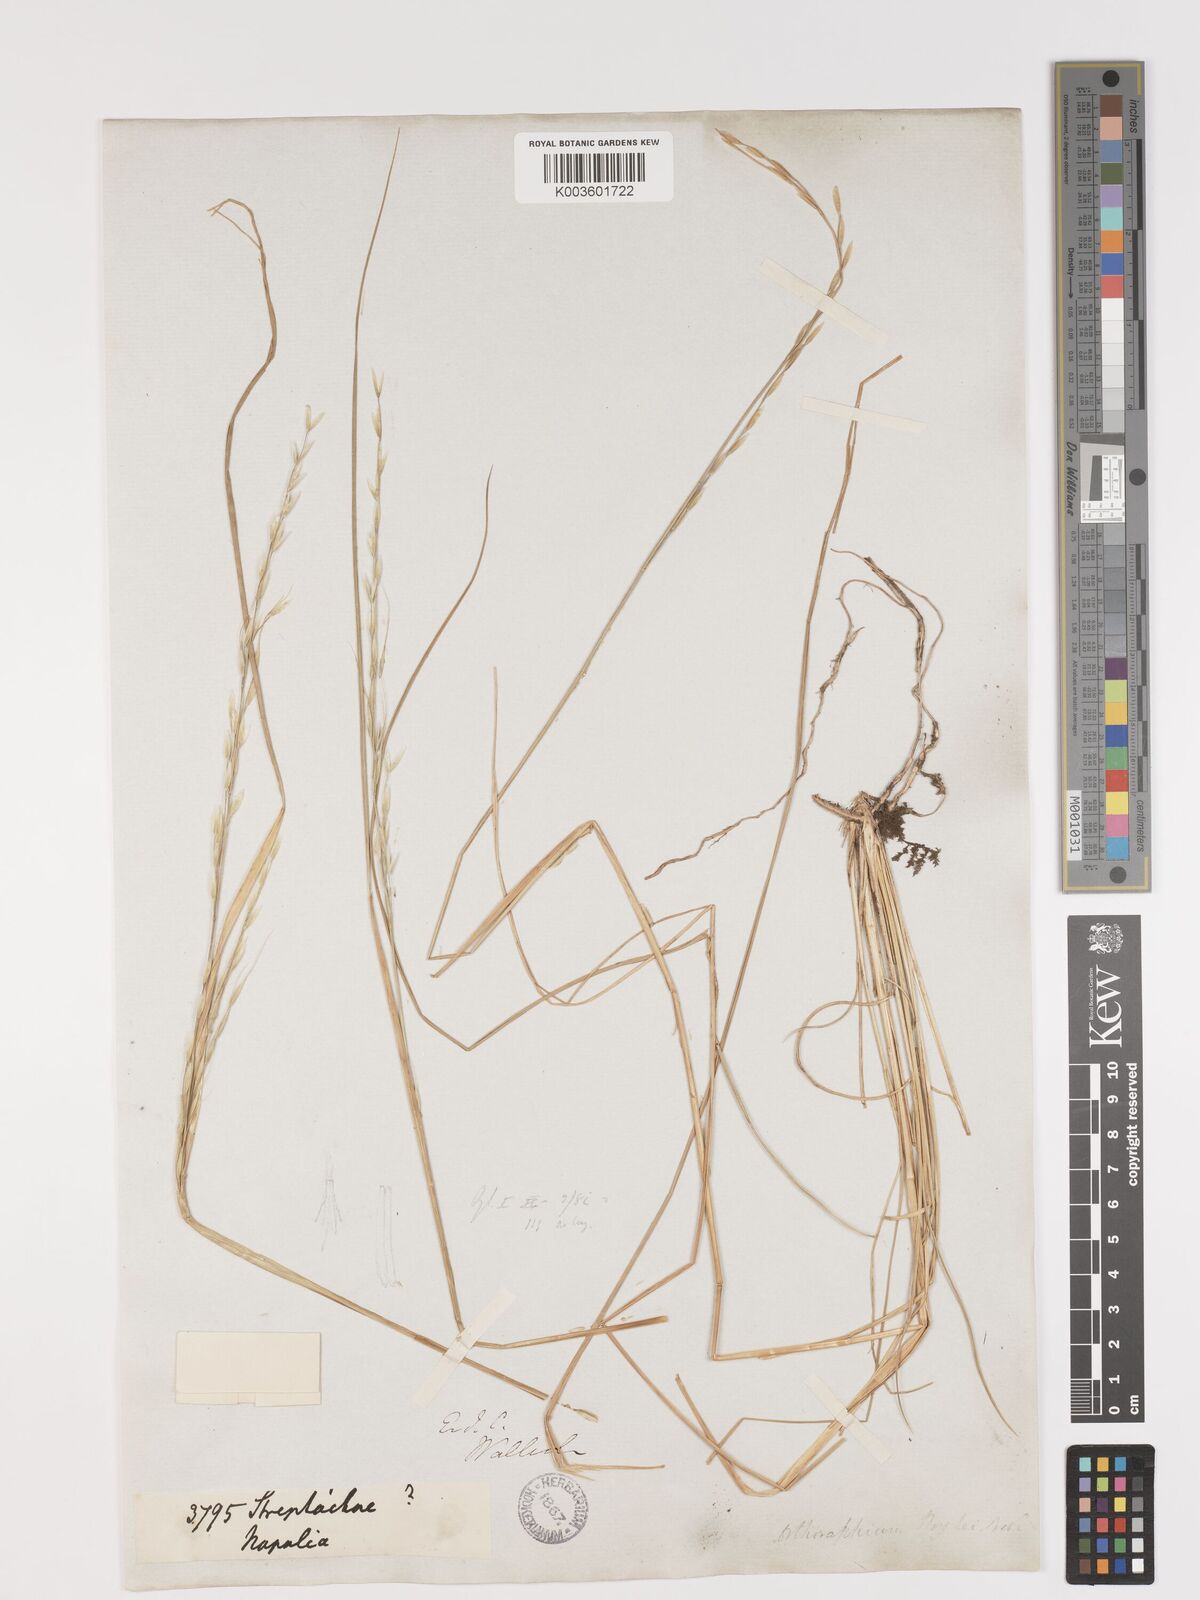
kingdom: Plantae
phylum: Tracheophyta
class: Liliopsida
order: Poales
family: Poaceae
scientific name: Poaceae
